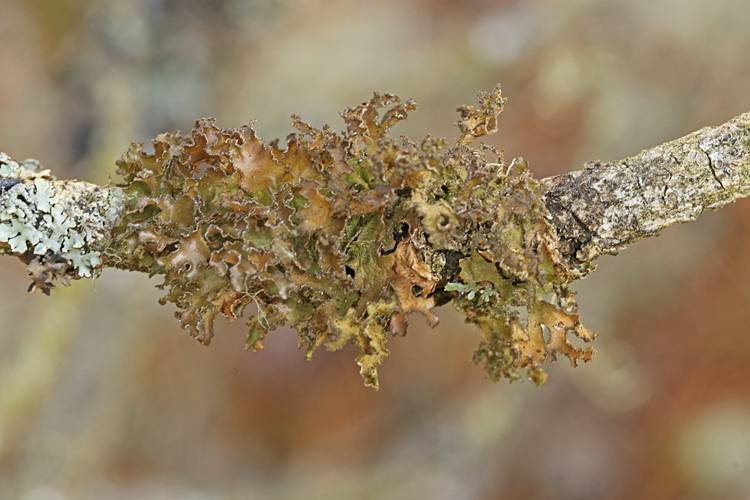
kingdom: Fungi
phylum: Ascomycota
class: Lecanoromycetes
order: Lecanorales
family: Parmeliaceae
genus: Nephromopsis
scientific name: Nephromopsis chlorophylla
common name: olivenbrun kruslav
